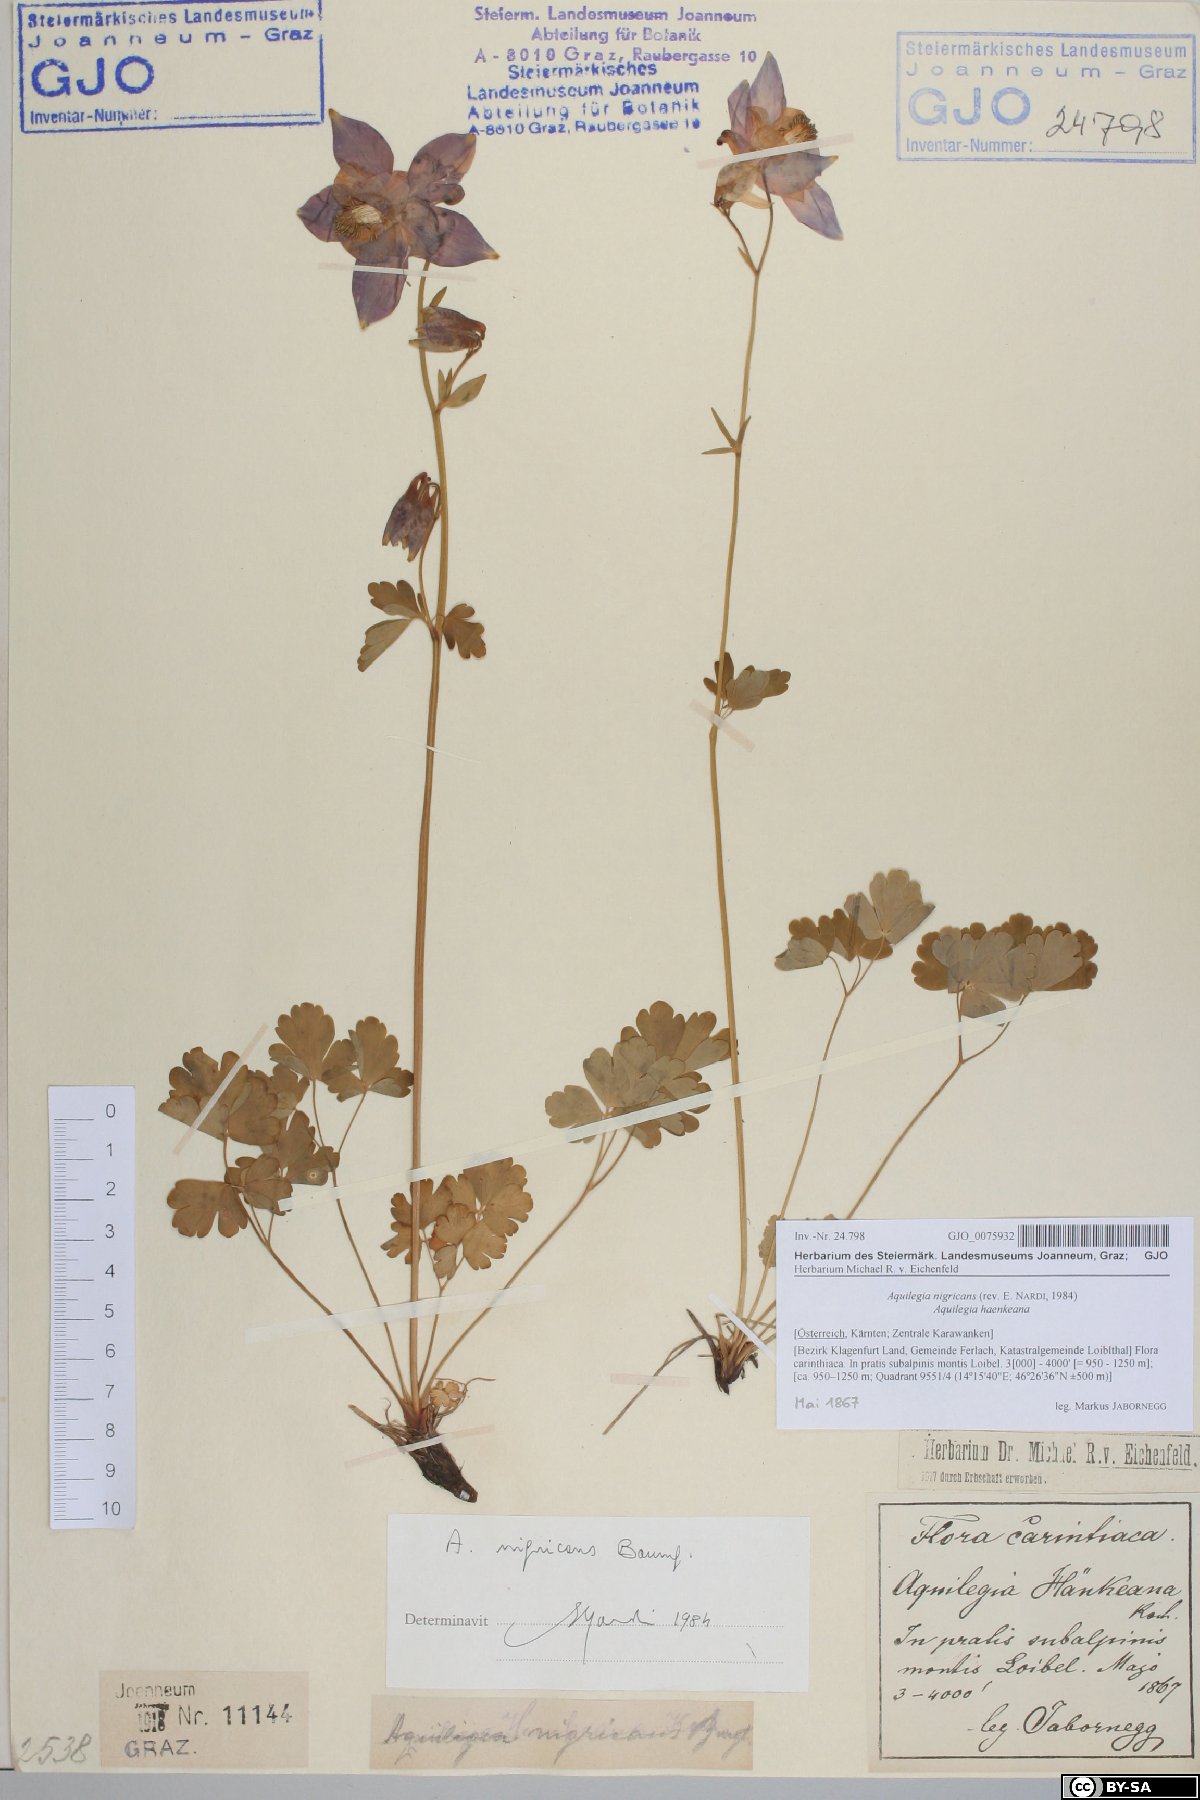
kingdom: Plantae
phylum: Tracheophyta
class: Magnoliopsida
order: Ranunculales
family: Ranunculaceae
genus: Aquilegia
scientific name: Aquilegia nigricans
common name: Bulgarian columbine
